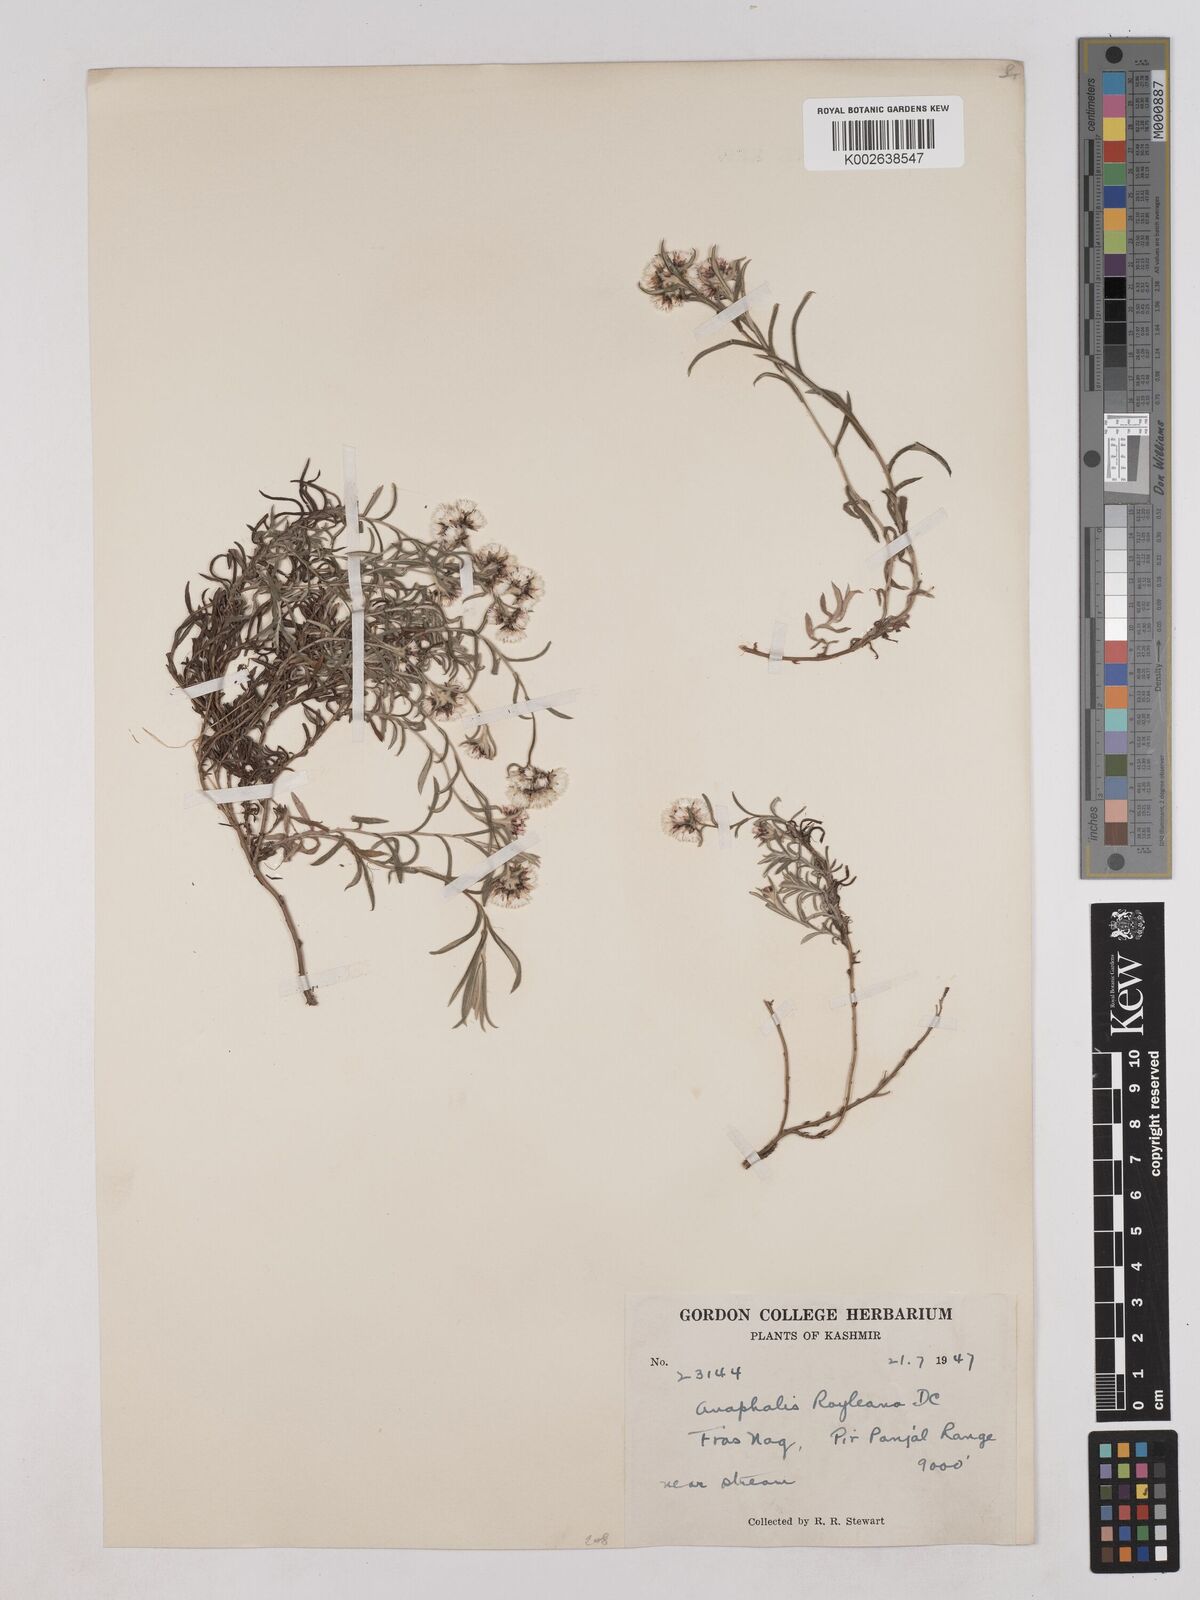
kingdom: Plantae
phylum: Tracheophyta
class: Magnoliopsida
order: Asterales
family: Asteraceae
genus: Anaphalis
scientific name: Anaphalis royleana
